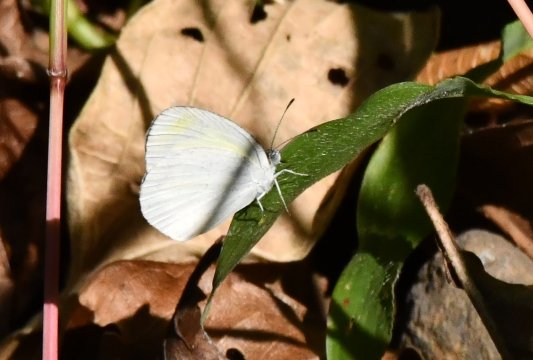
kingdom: Animalia
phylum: Arthropoda
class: Insecta
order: Lepidoptera
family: Pieridae
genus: Eurema
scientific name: Eurema daira
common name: Barred Yellow
